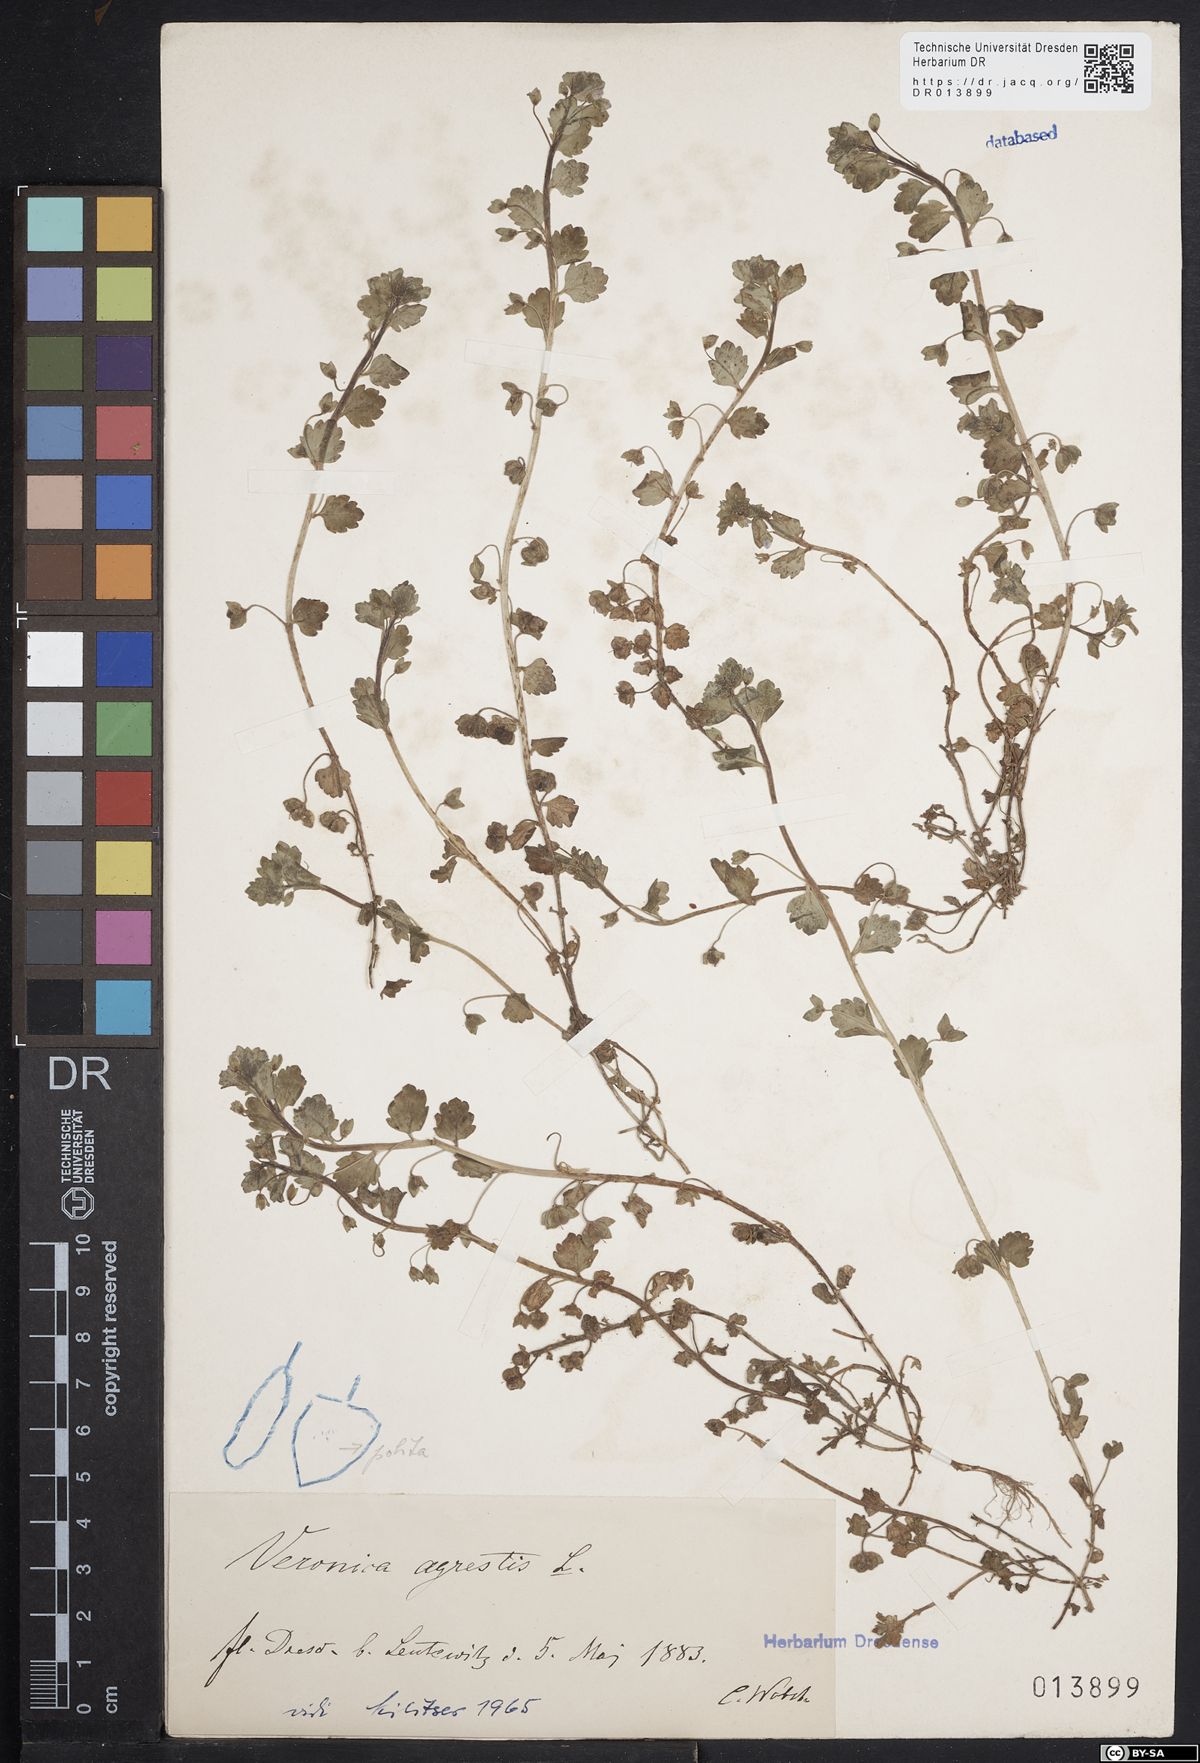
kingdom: Plantae
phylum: Tracheophyta
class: Magnoliopsida
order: Lamiales
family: Plantaginaceae
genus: Veronica
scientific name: Veronica polita
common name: Grey field-speedwell
